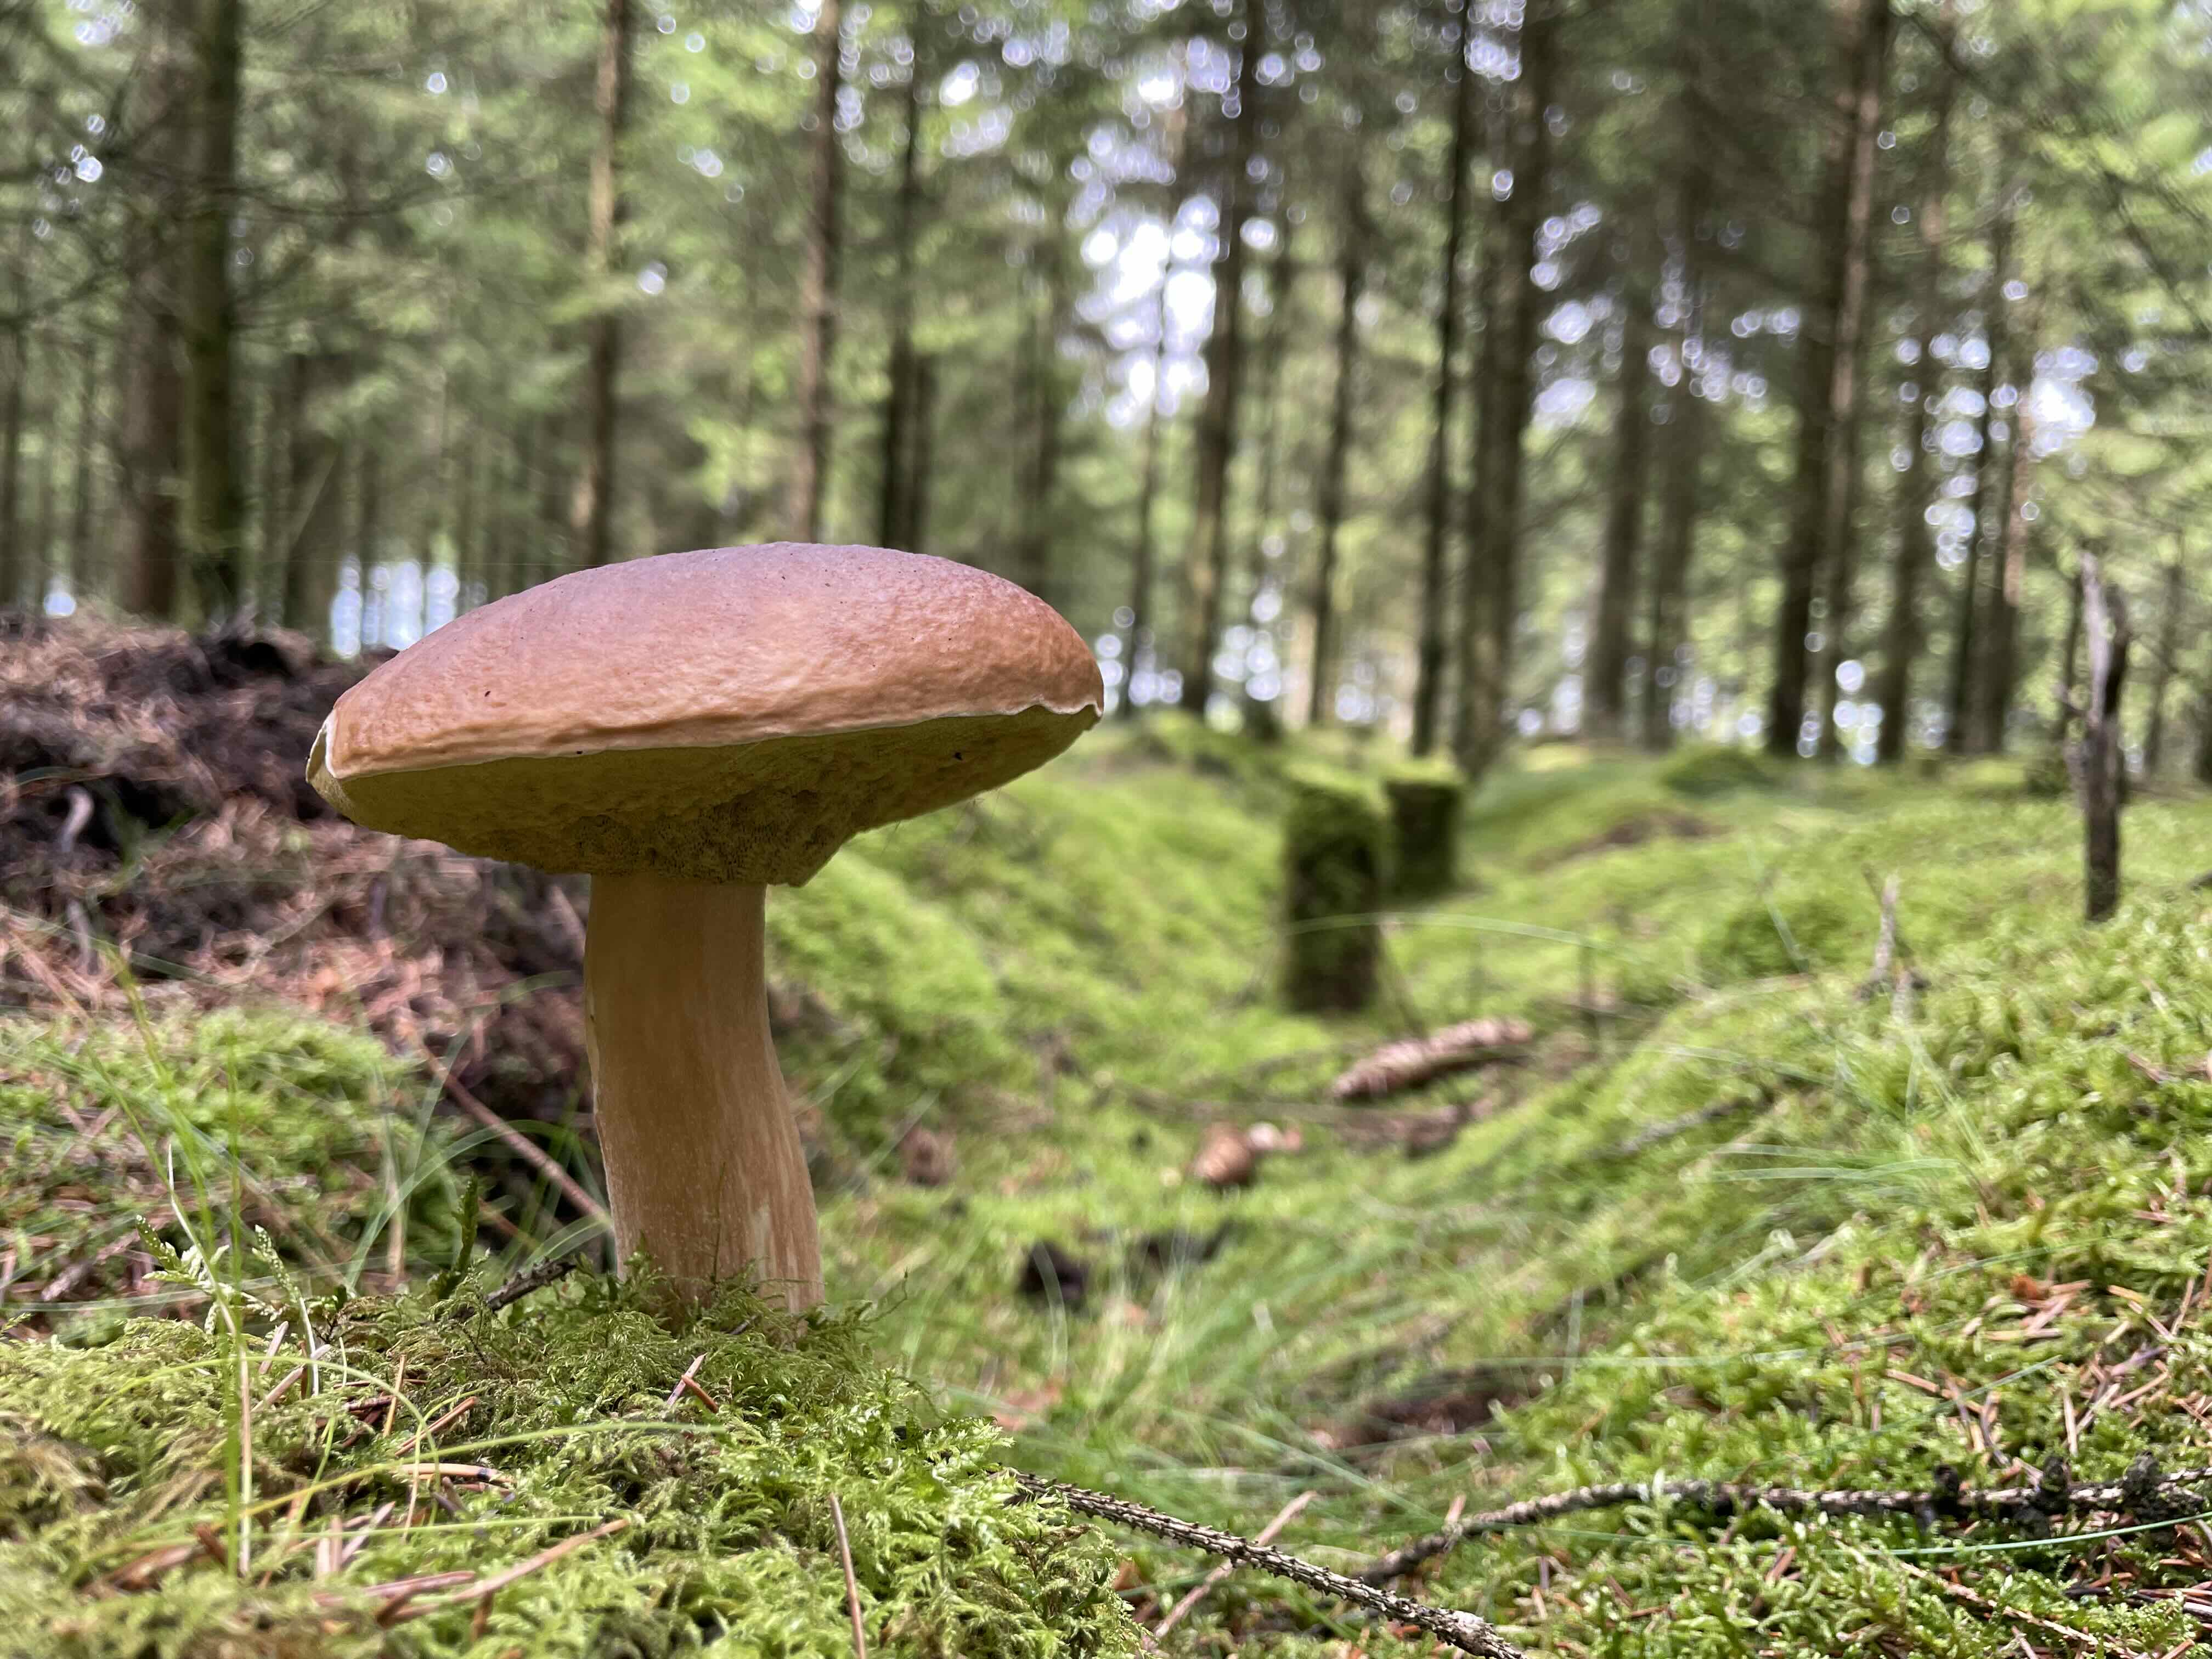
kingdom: Fungi
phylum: Basidiomycota
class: Agaricomycetes
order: Boletales
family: Boletaceae
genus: Boletus
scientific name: Boletus edulis
